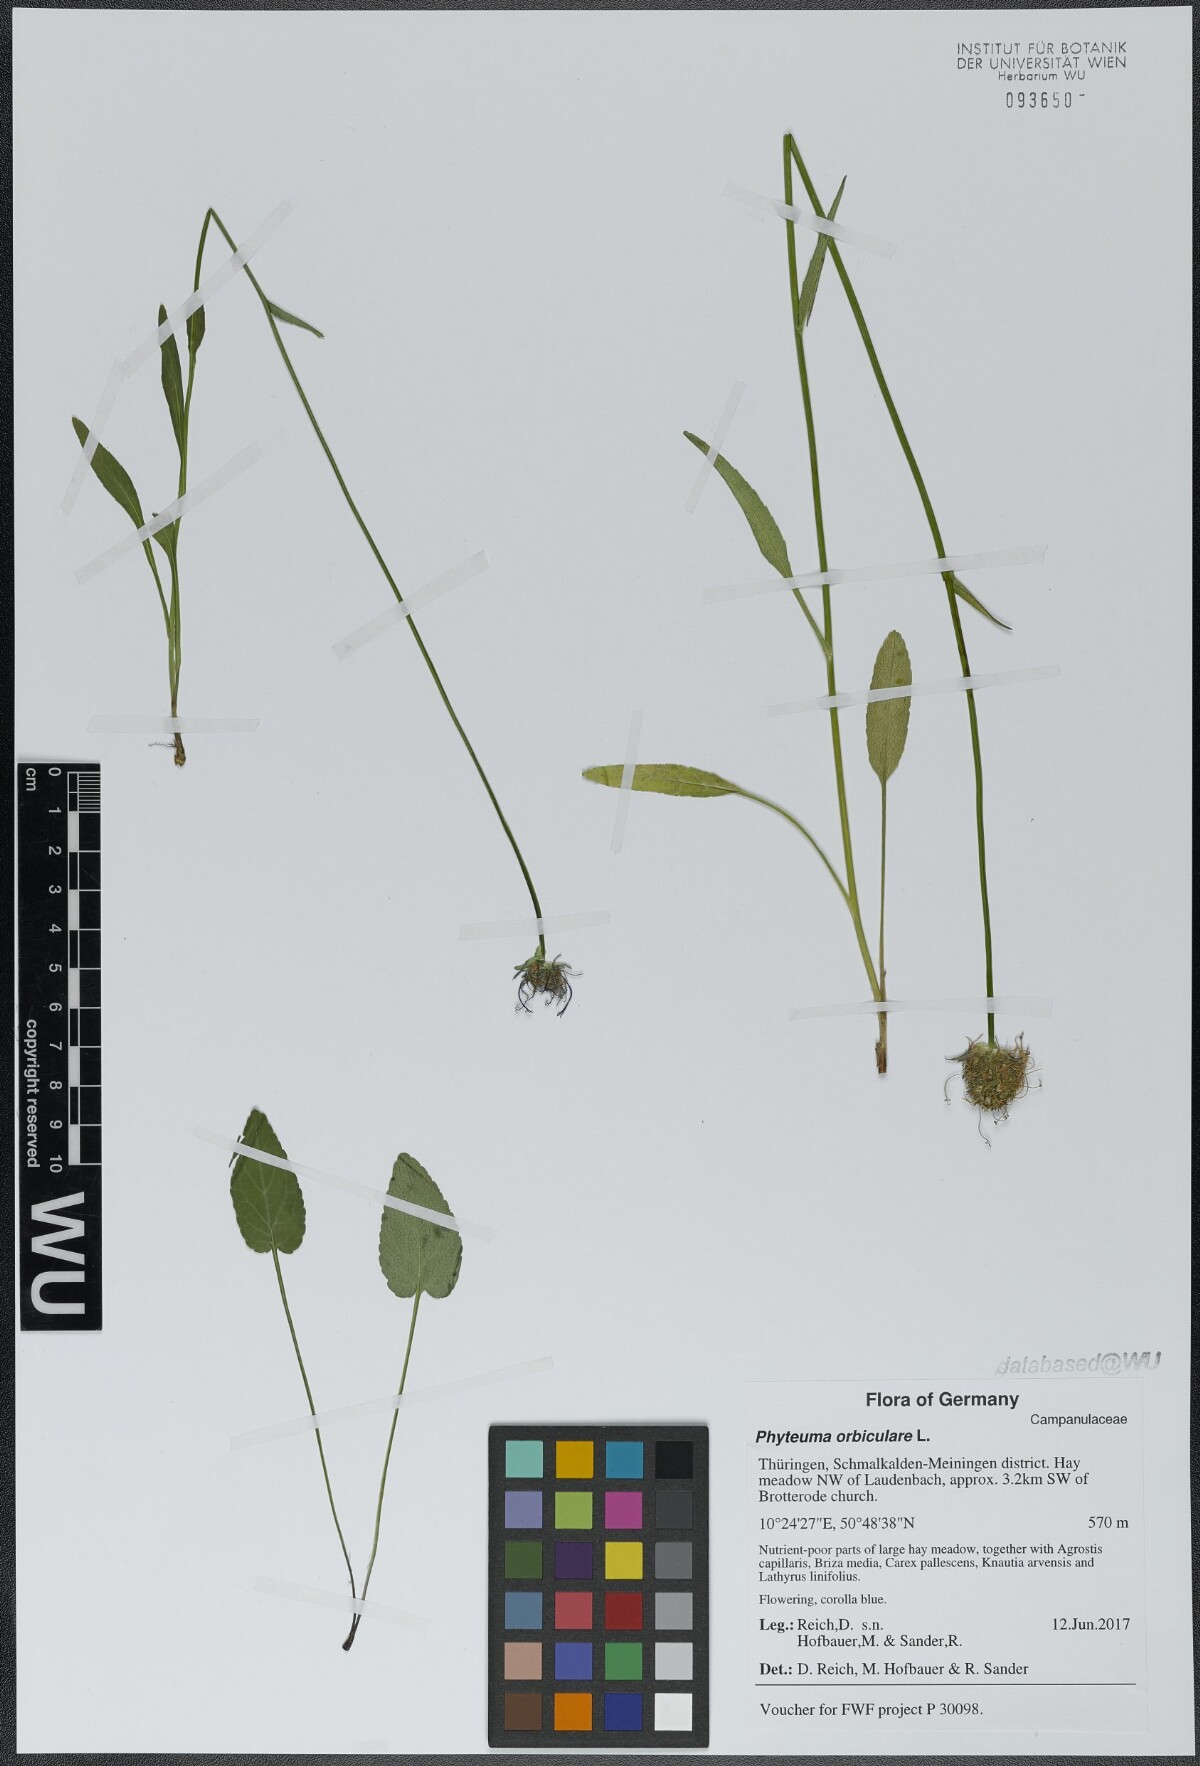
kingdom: Plantae
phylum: Tracheophyta
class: Magnoliopsida
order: Asterales
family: Campanulaceae
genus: Phyteuma
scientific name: Phyteuma orbiculare
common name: Round-headed rampion
